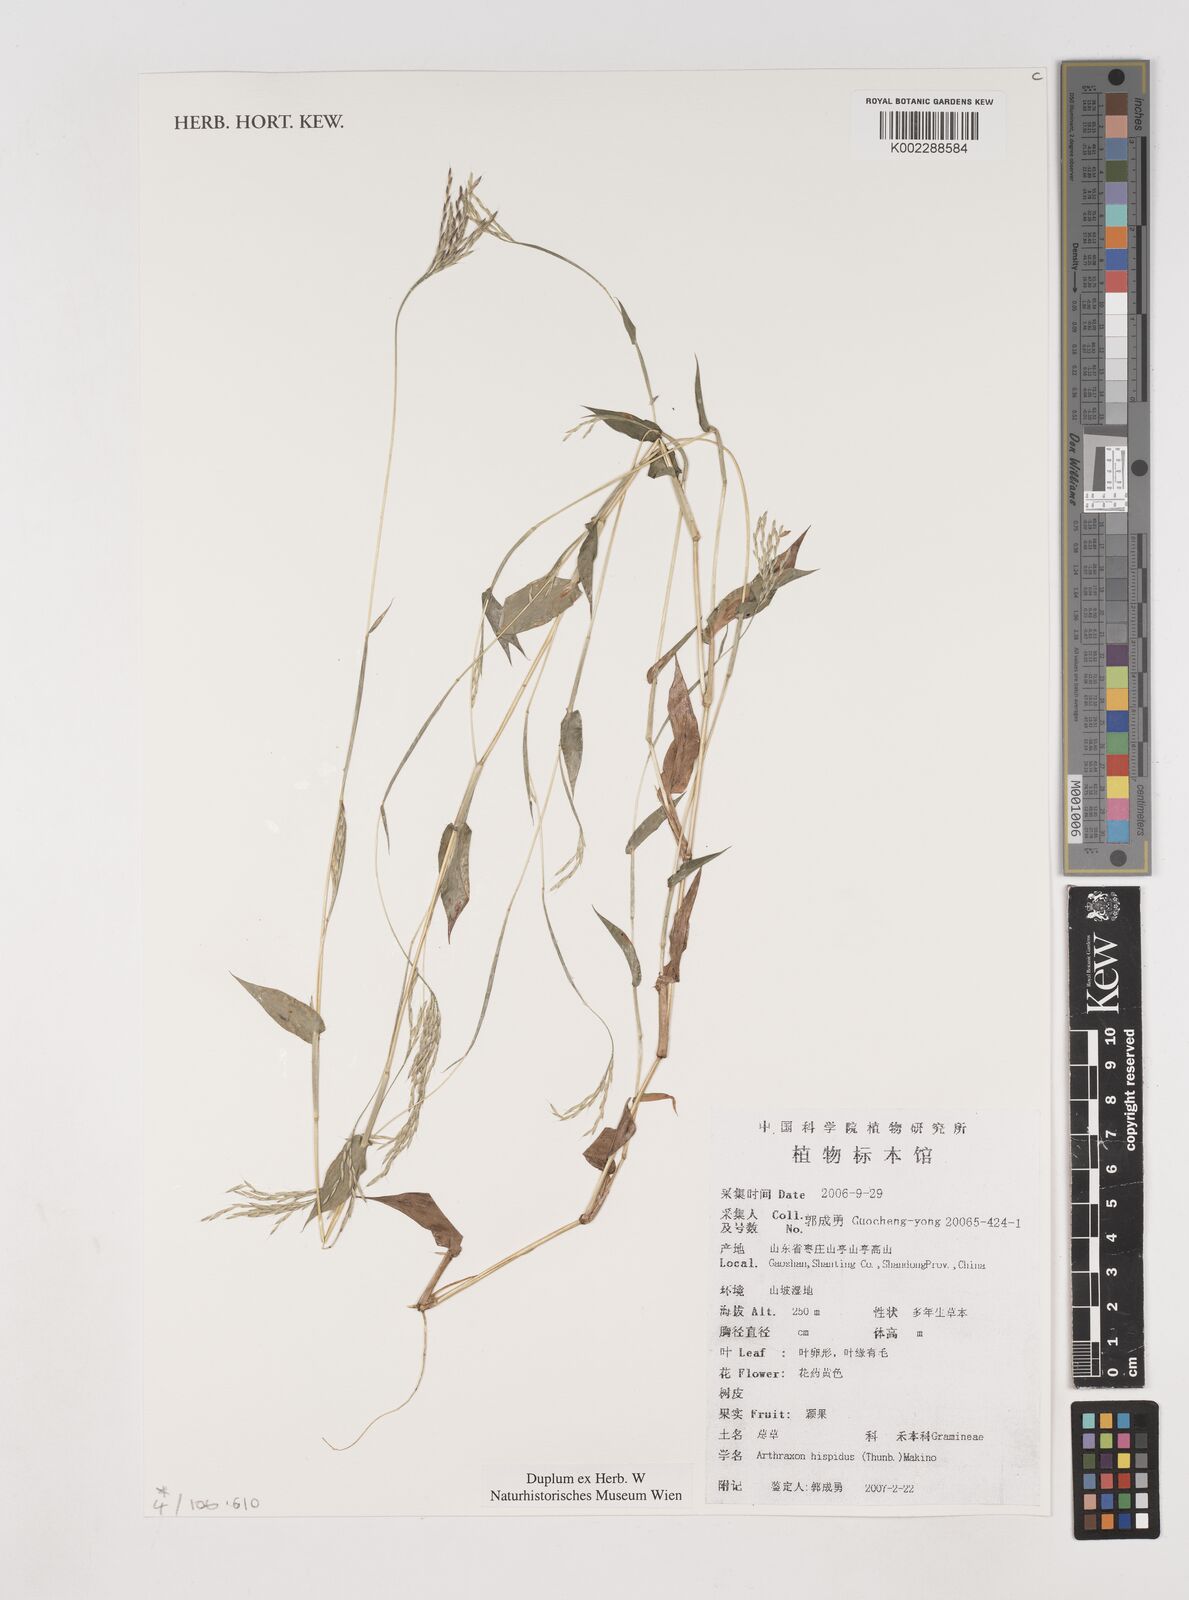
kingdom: Plantae
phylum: Tracheophyta
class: Liliopsida
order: Poales
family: Poaceae
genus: Arthraxon
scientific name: Arthraxon hispidus
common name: Small carpgrass
